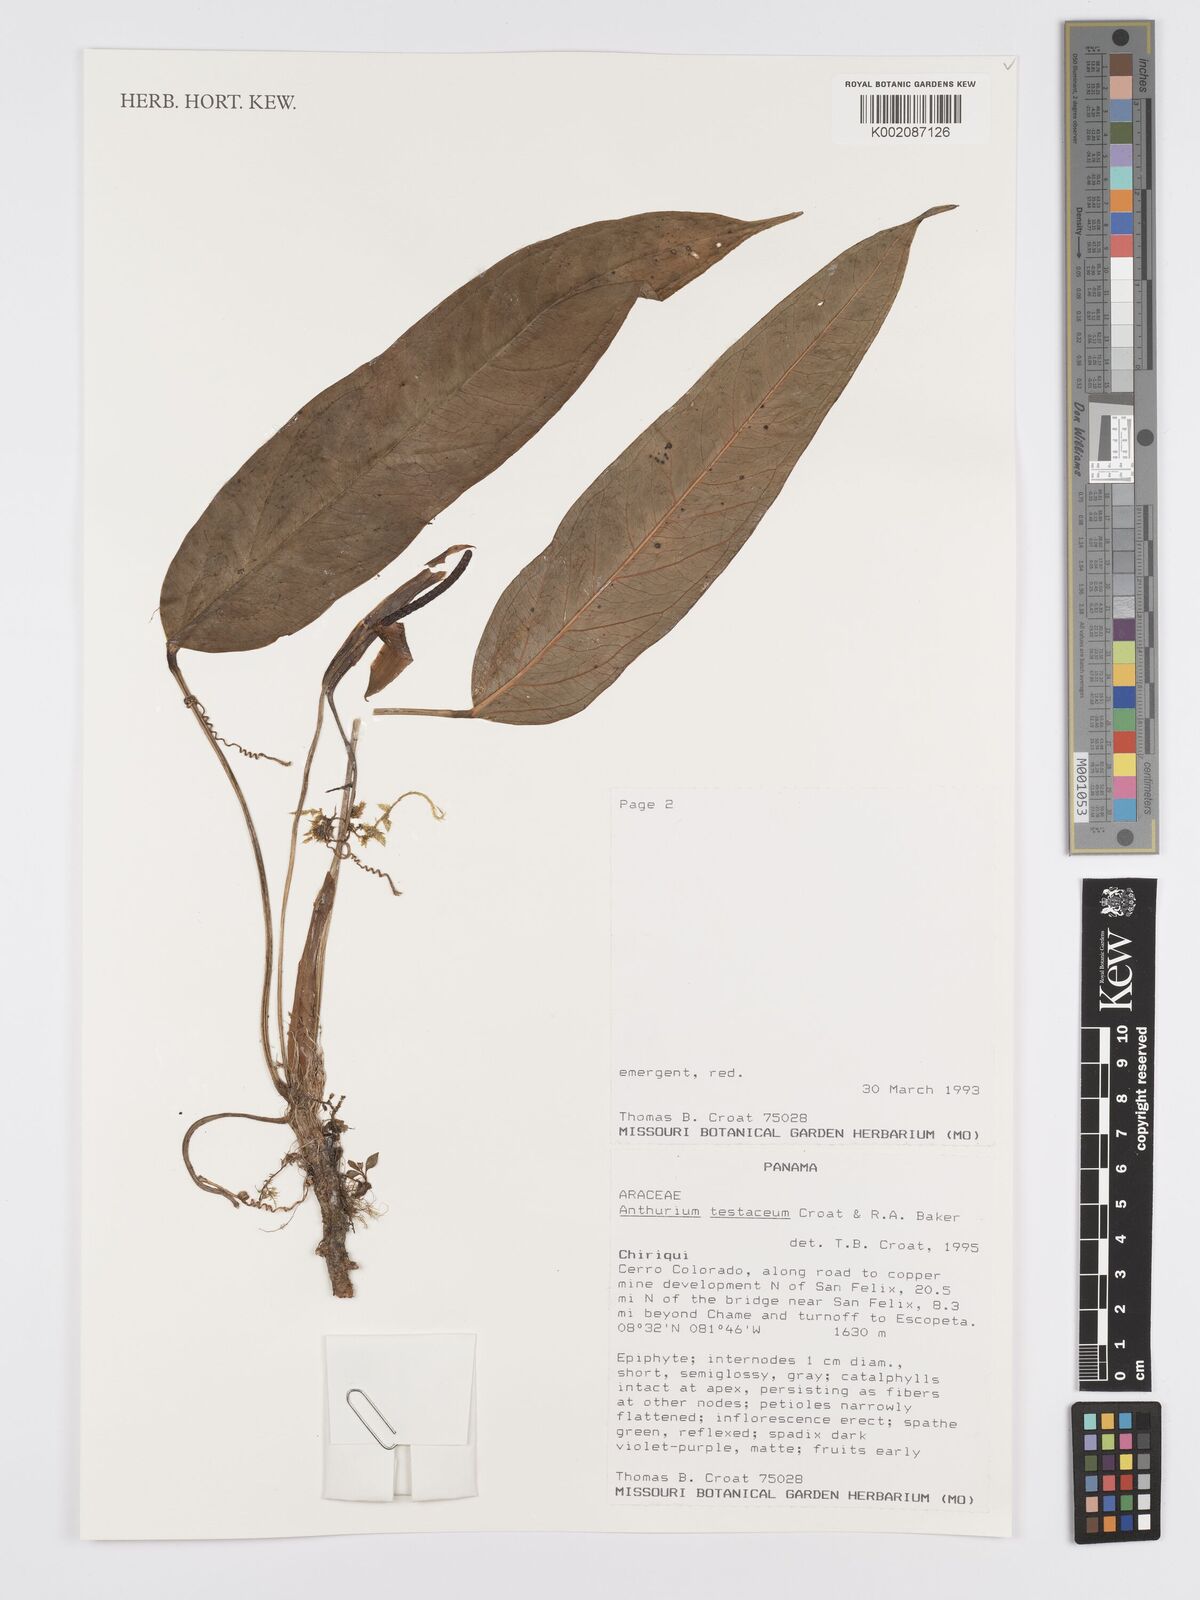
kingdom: Plantae
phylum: Tracheophyta
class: Liliopsida
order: Alismatales
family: Araceae
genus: Anthurium
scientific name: Anthurium testaceum
